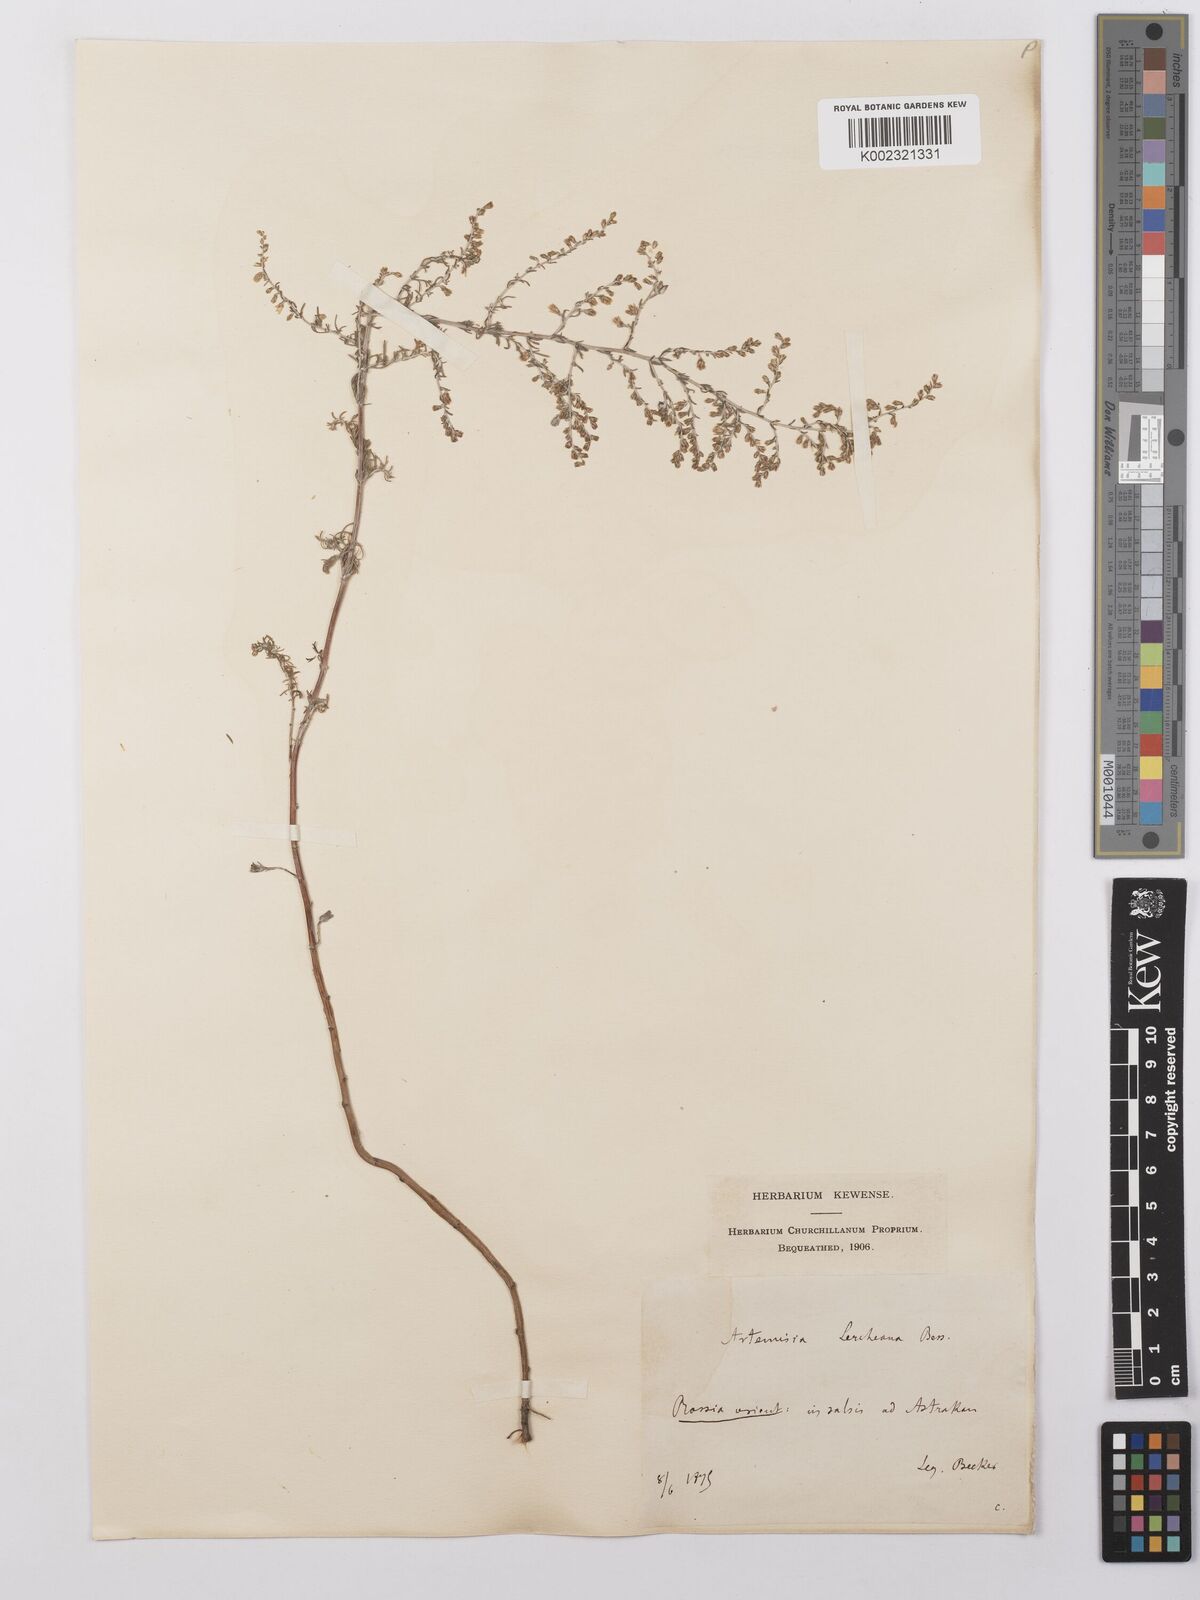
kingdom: Plantae
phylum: Tracheophyta
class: Magnoliopsida
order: Asterales
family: Asteraceae
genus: Artemisia
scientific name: Artemisia taurica
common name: Tauric wormwood
